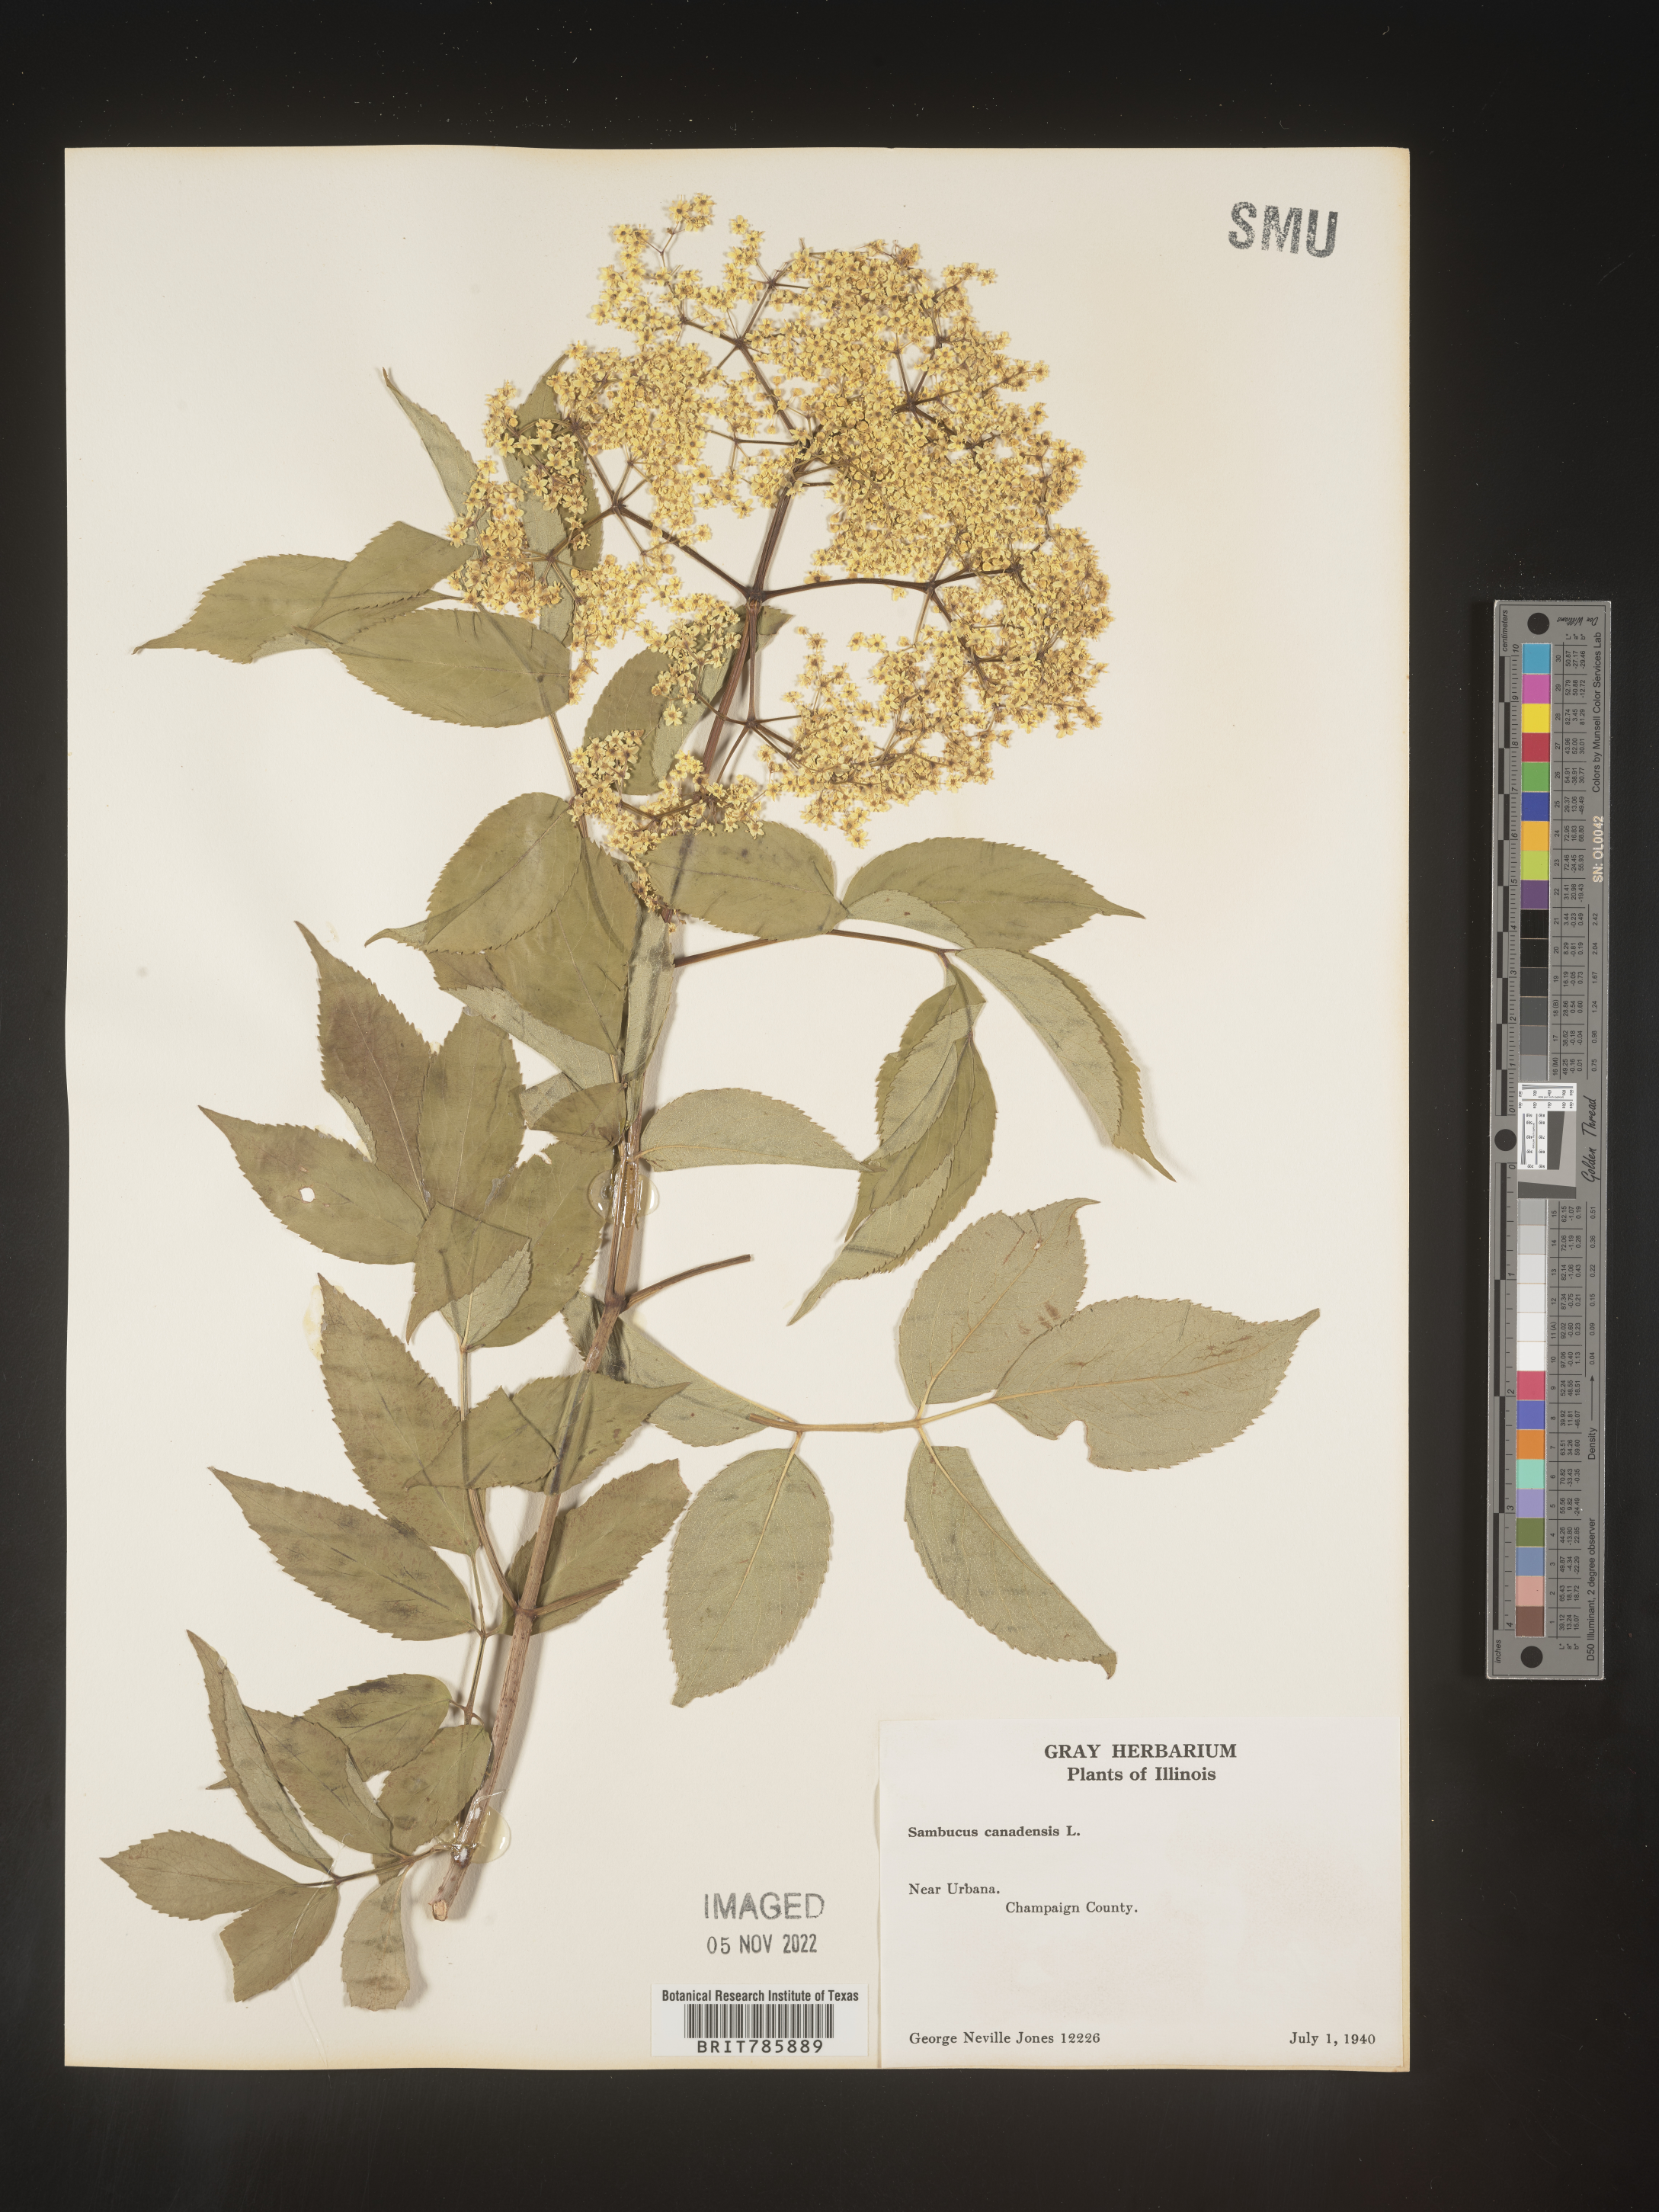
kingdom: Plantae
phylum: Tracheophyta
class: Magnoliopsida
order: Dipsacales
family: Viburnaceae
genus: Sambucus
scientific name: Sambucus nigra
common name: Elder
